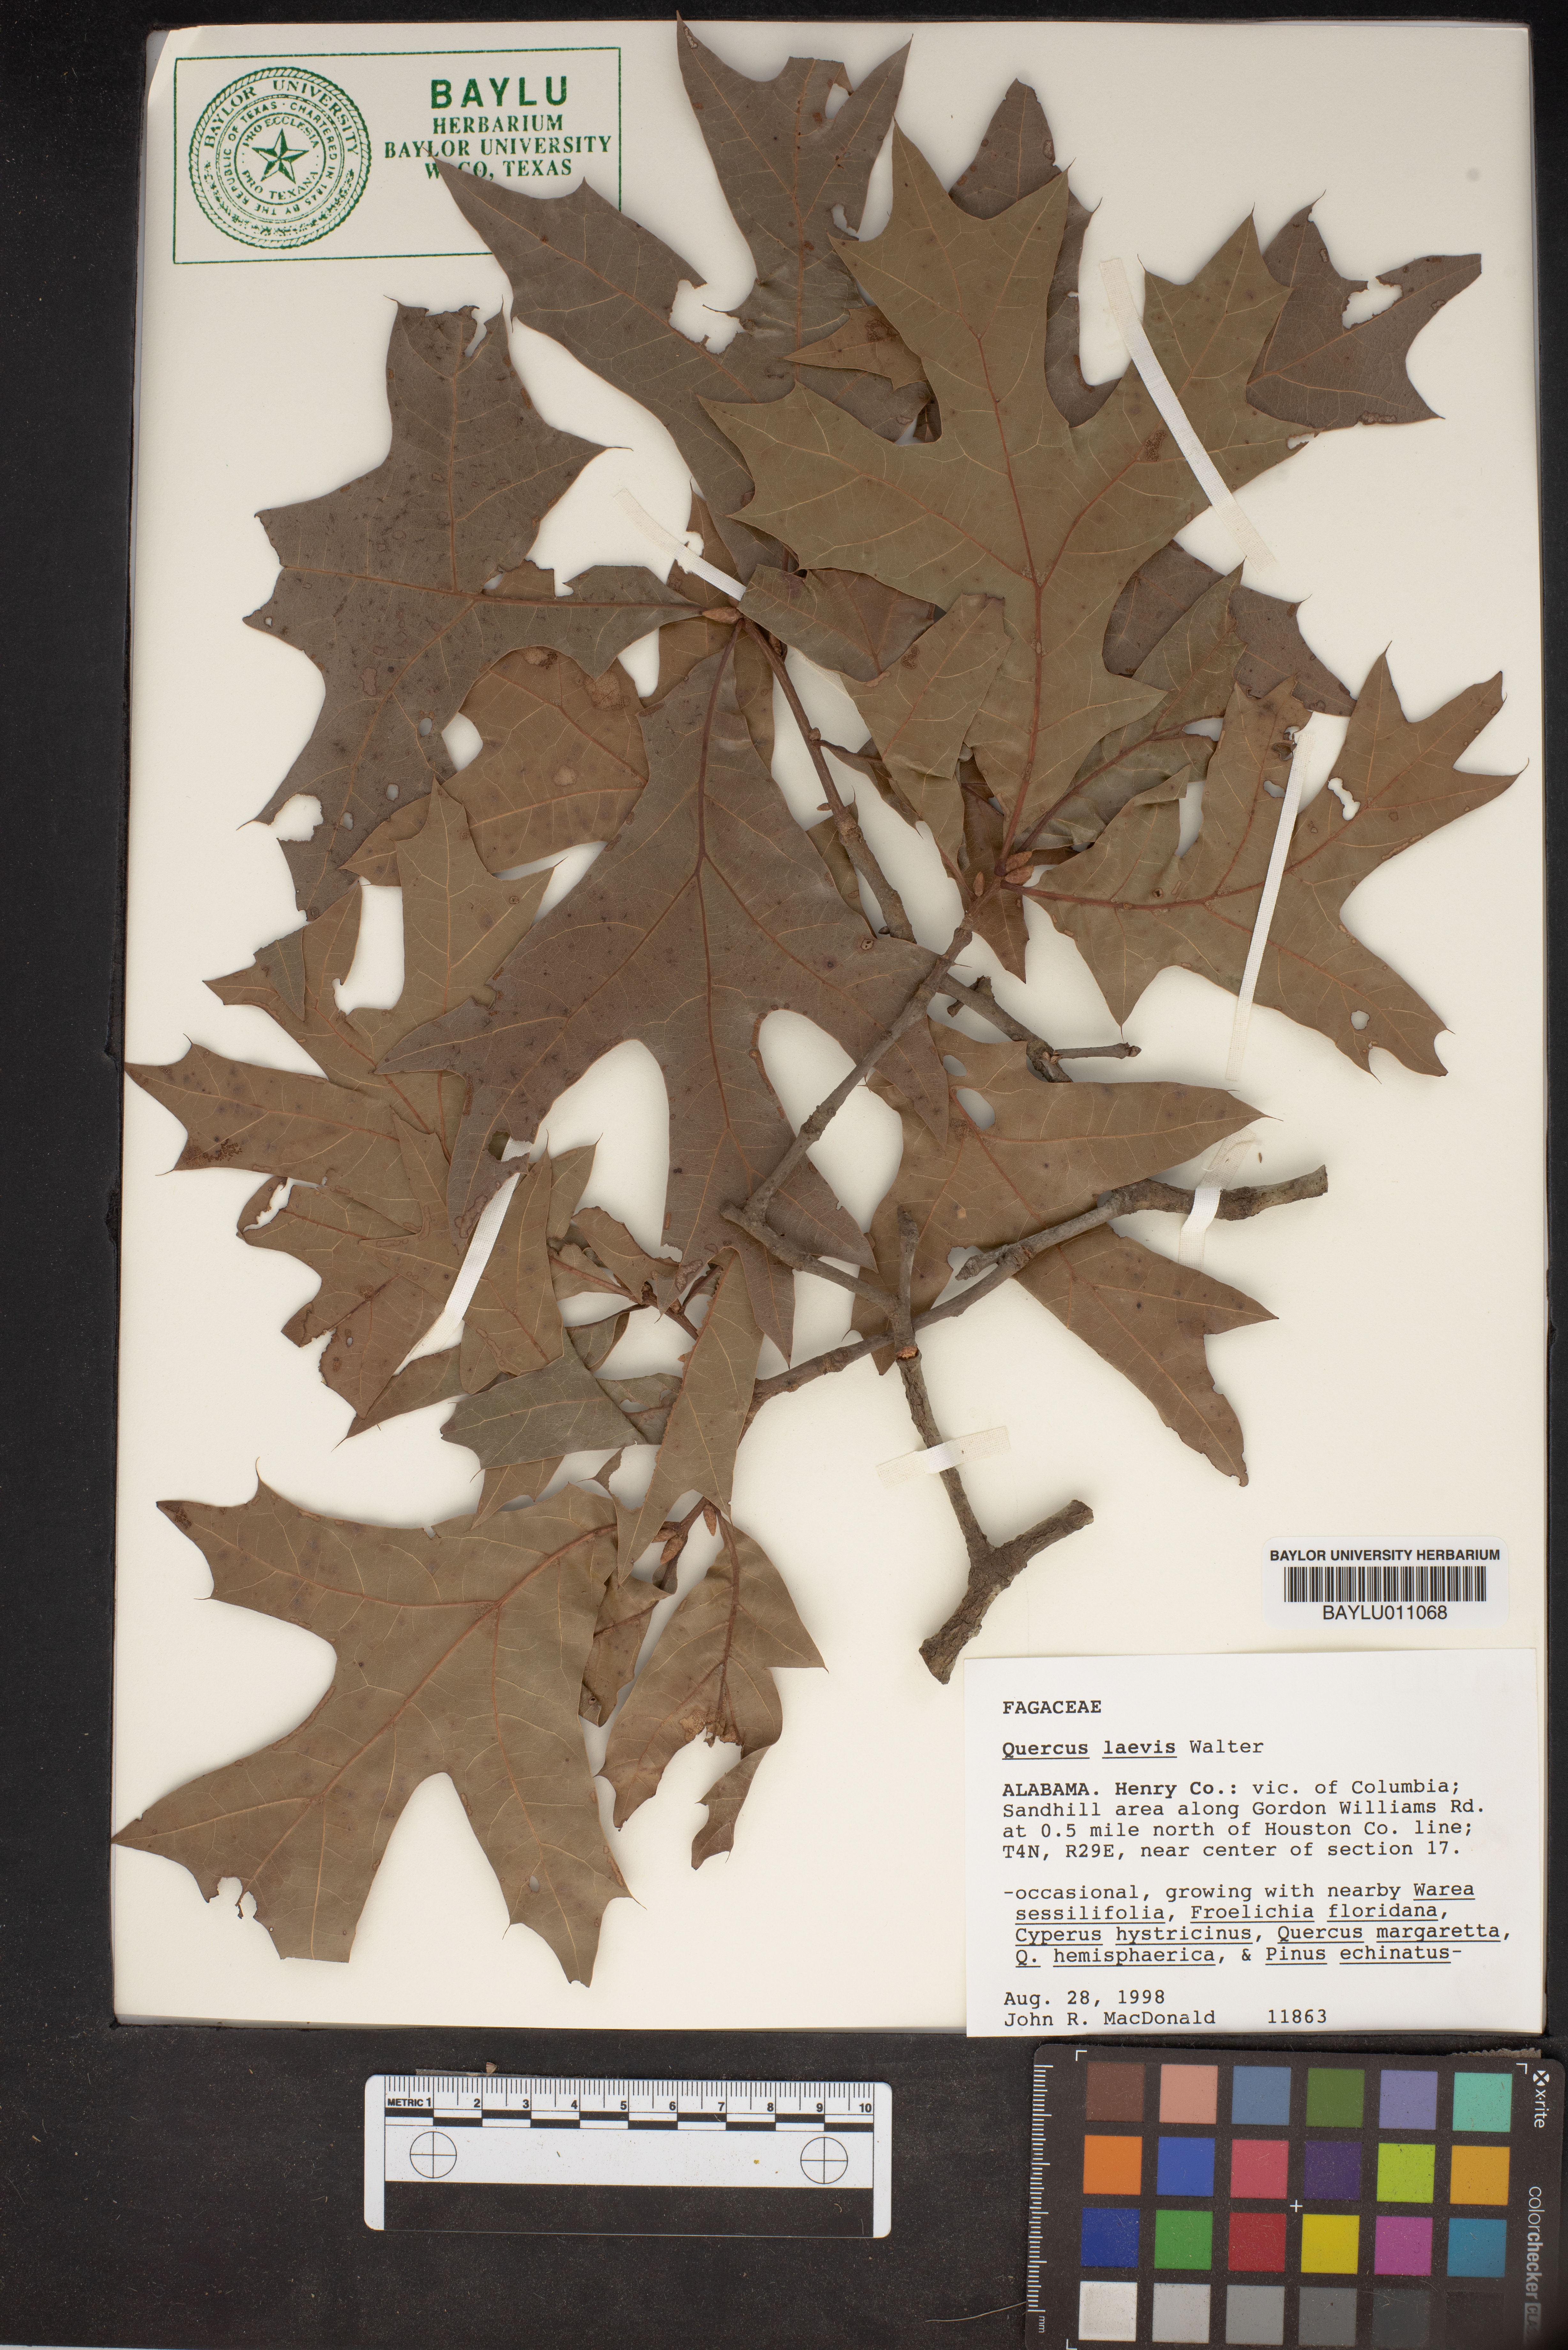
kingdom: Plantae
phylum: Tracheophyta
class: Magnoliopsida
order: Fagales
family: Fagaceae
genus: Quercus
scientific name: Quercus laevis
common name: Turkey oak
